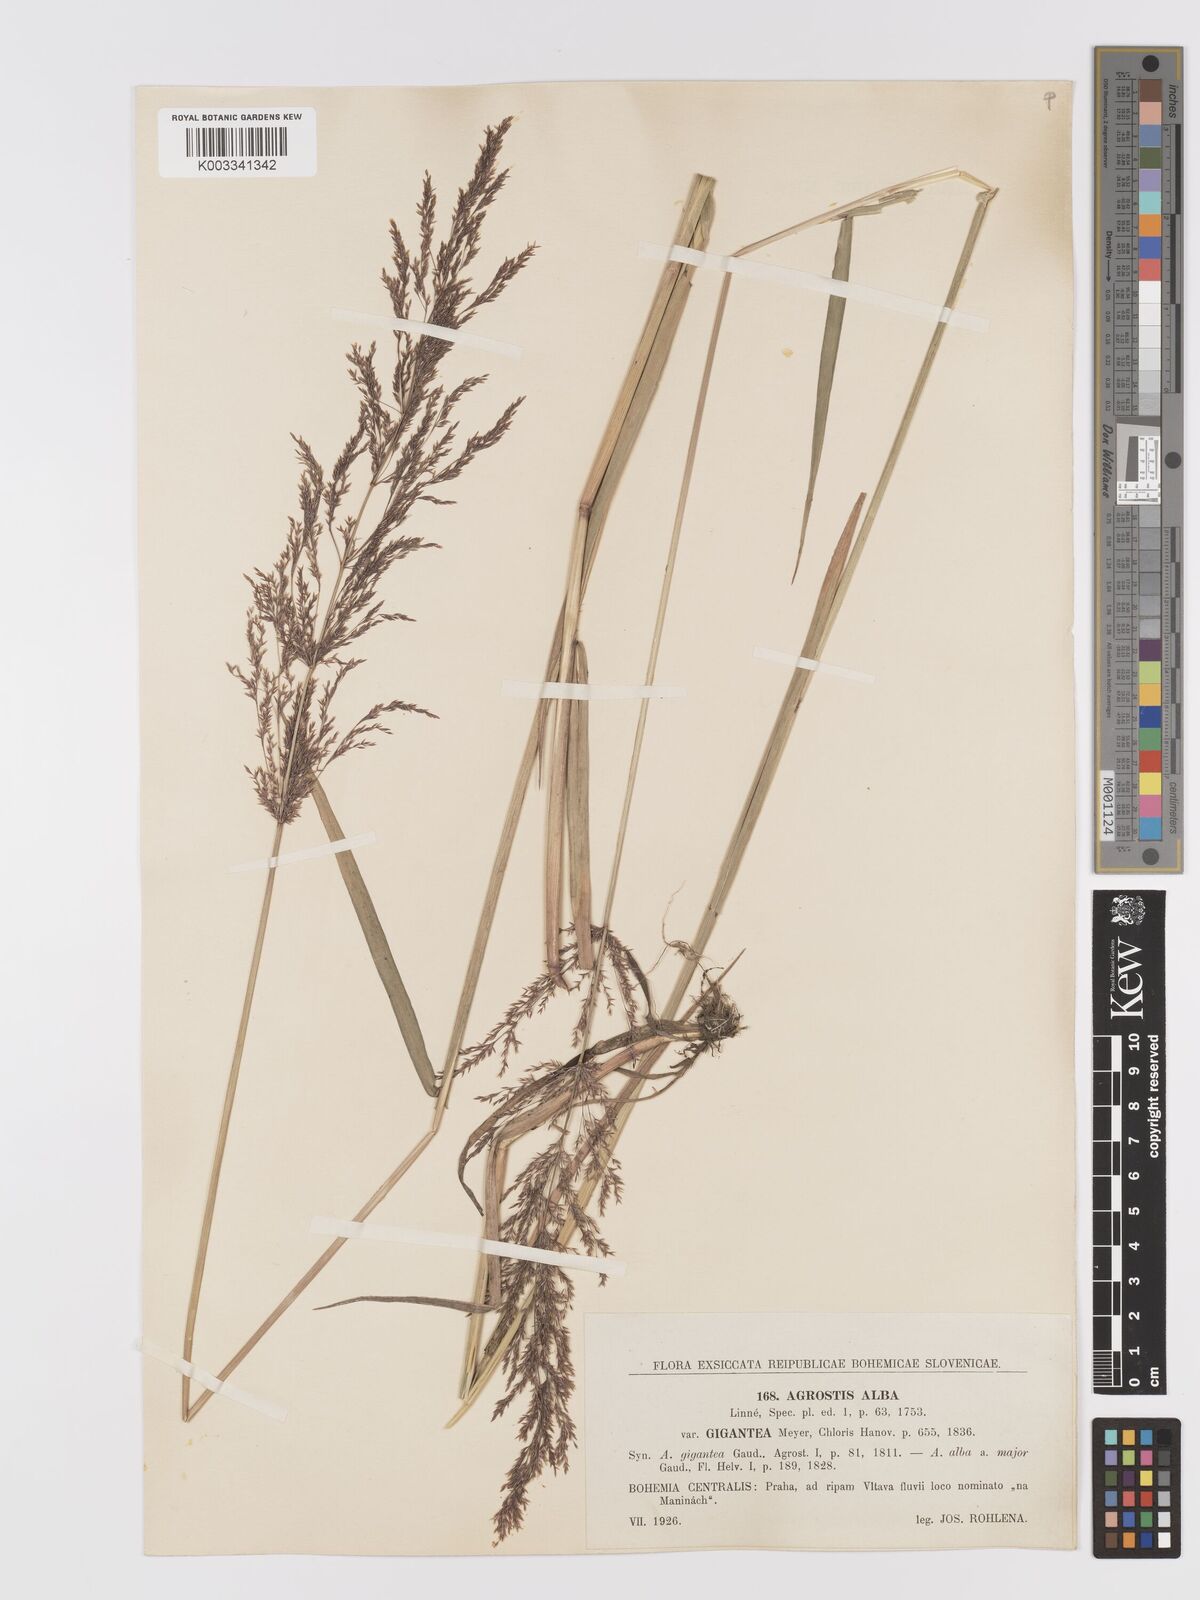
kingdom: Plantae
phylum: Tracheophyta
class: Liliopsida
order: Poales
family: Poaceae
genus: Agrostis
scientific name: Agrostis gigantea
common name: Black bent
